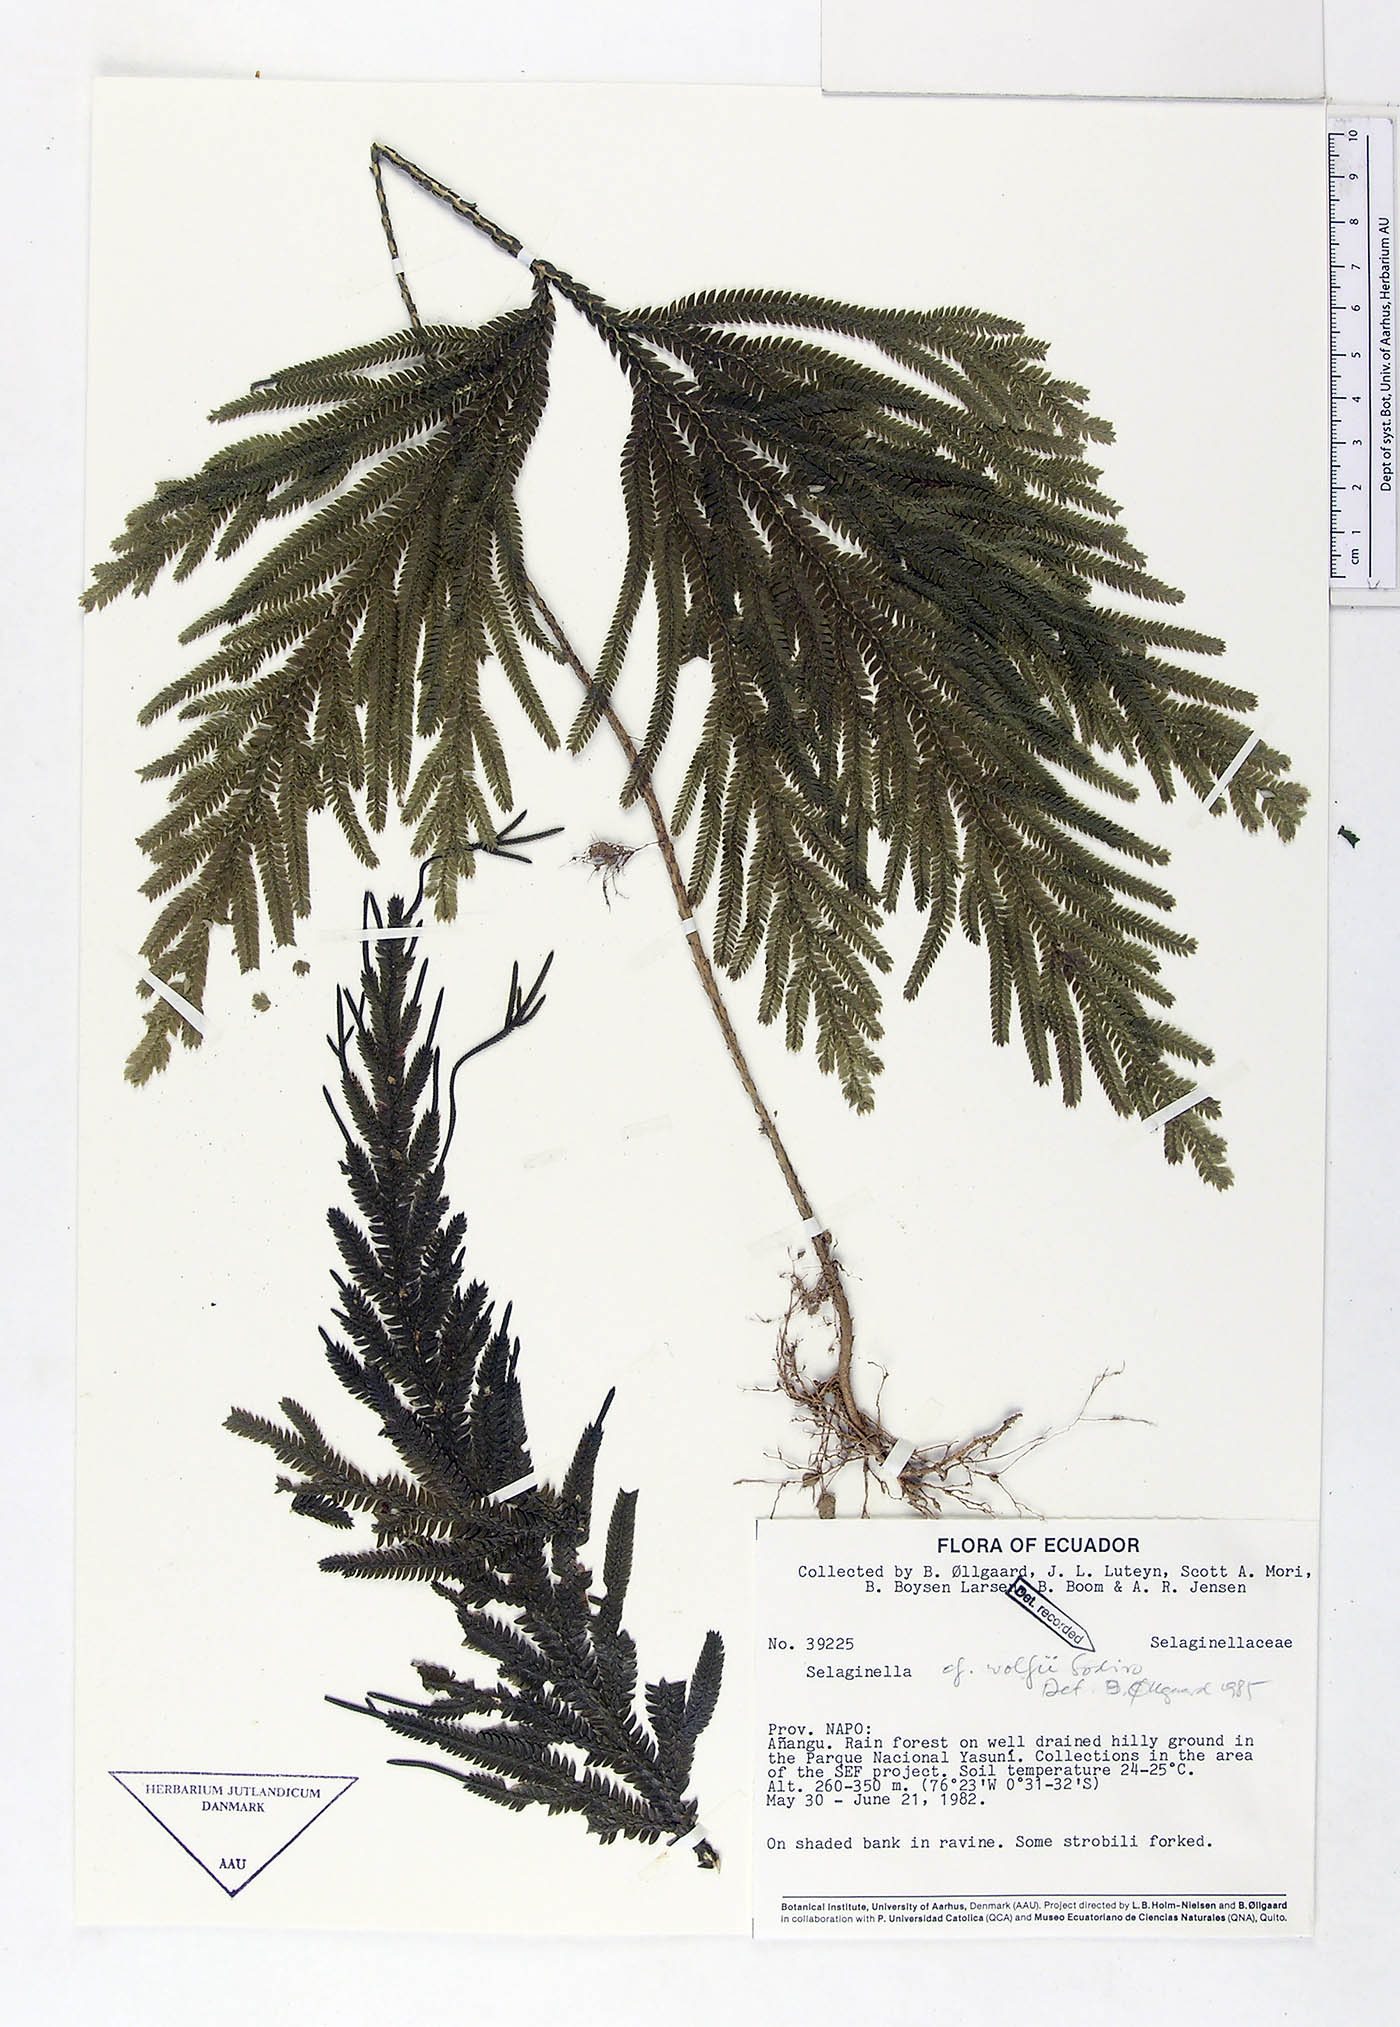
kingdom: Plantae
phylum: Tracheophyta
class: Lycopodiopsida
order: Selaginellales
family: Selaginellaceae
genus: Selaginella
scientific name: Selaginella wolffii
